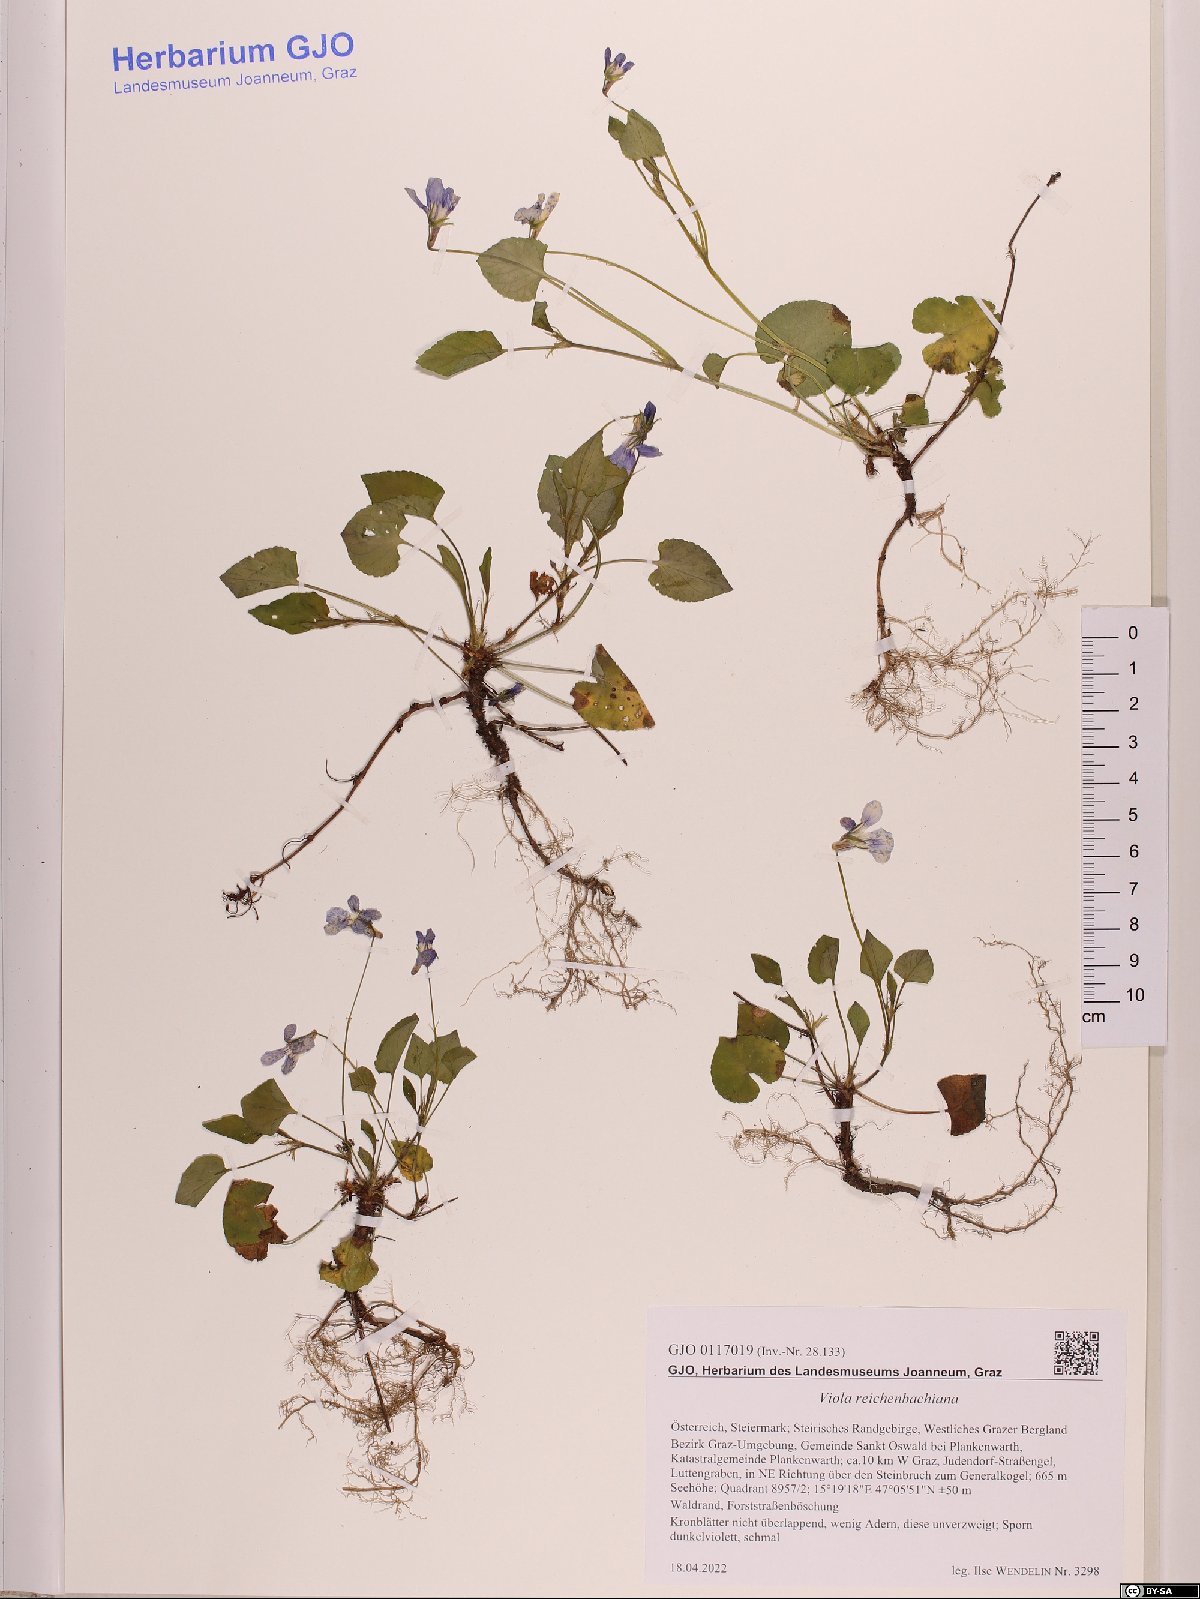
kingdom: Plantae
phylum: Tracheophyta
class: Magnoliopsida
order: Malpighiales
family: Violaceae
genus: Viola
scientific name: Viola reichenbachiana
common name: Early dog-violet
